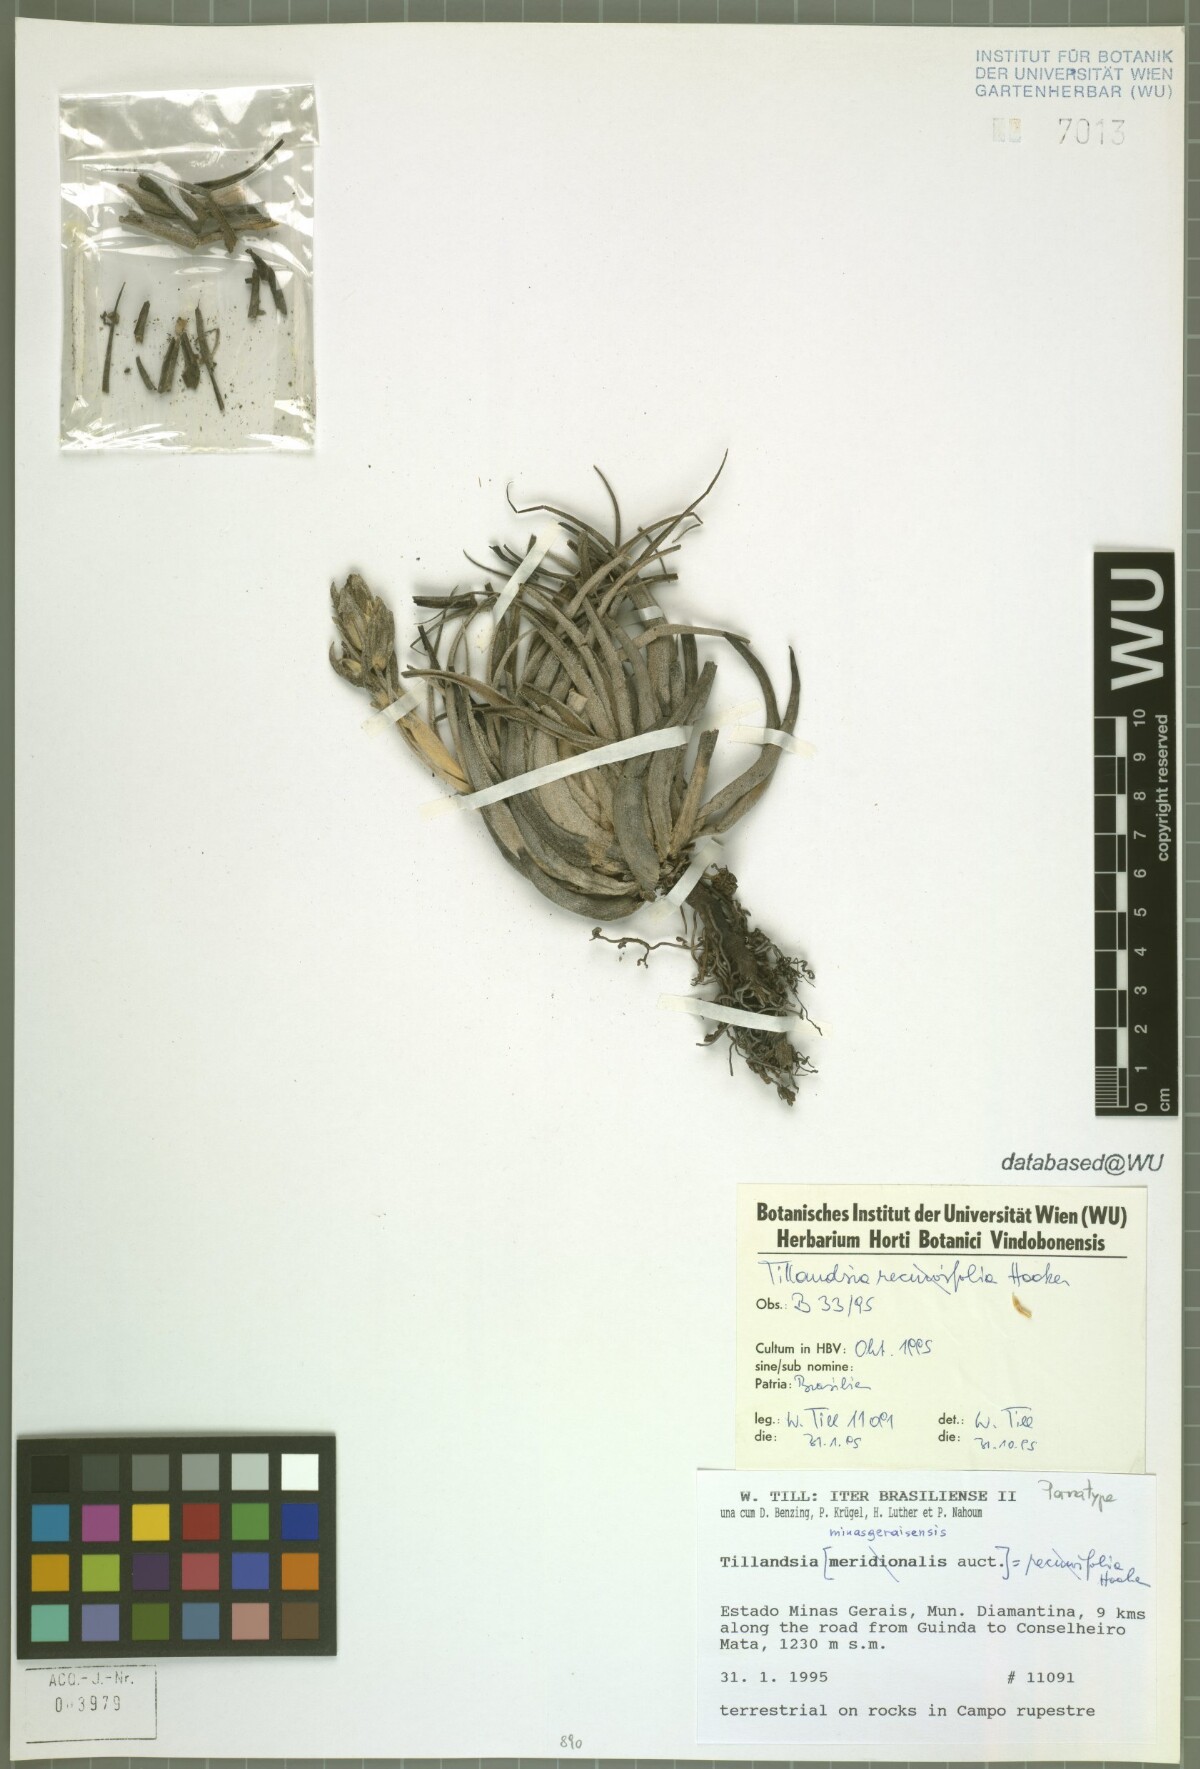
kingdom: Plantae
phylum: Tracheophyta
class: Liliopsida
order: Poales
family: Bromeliaceae
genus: Tillandsia
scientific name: Tillandsia minasgeraisensis
